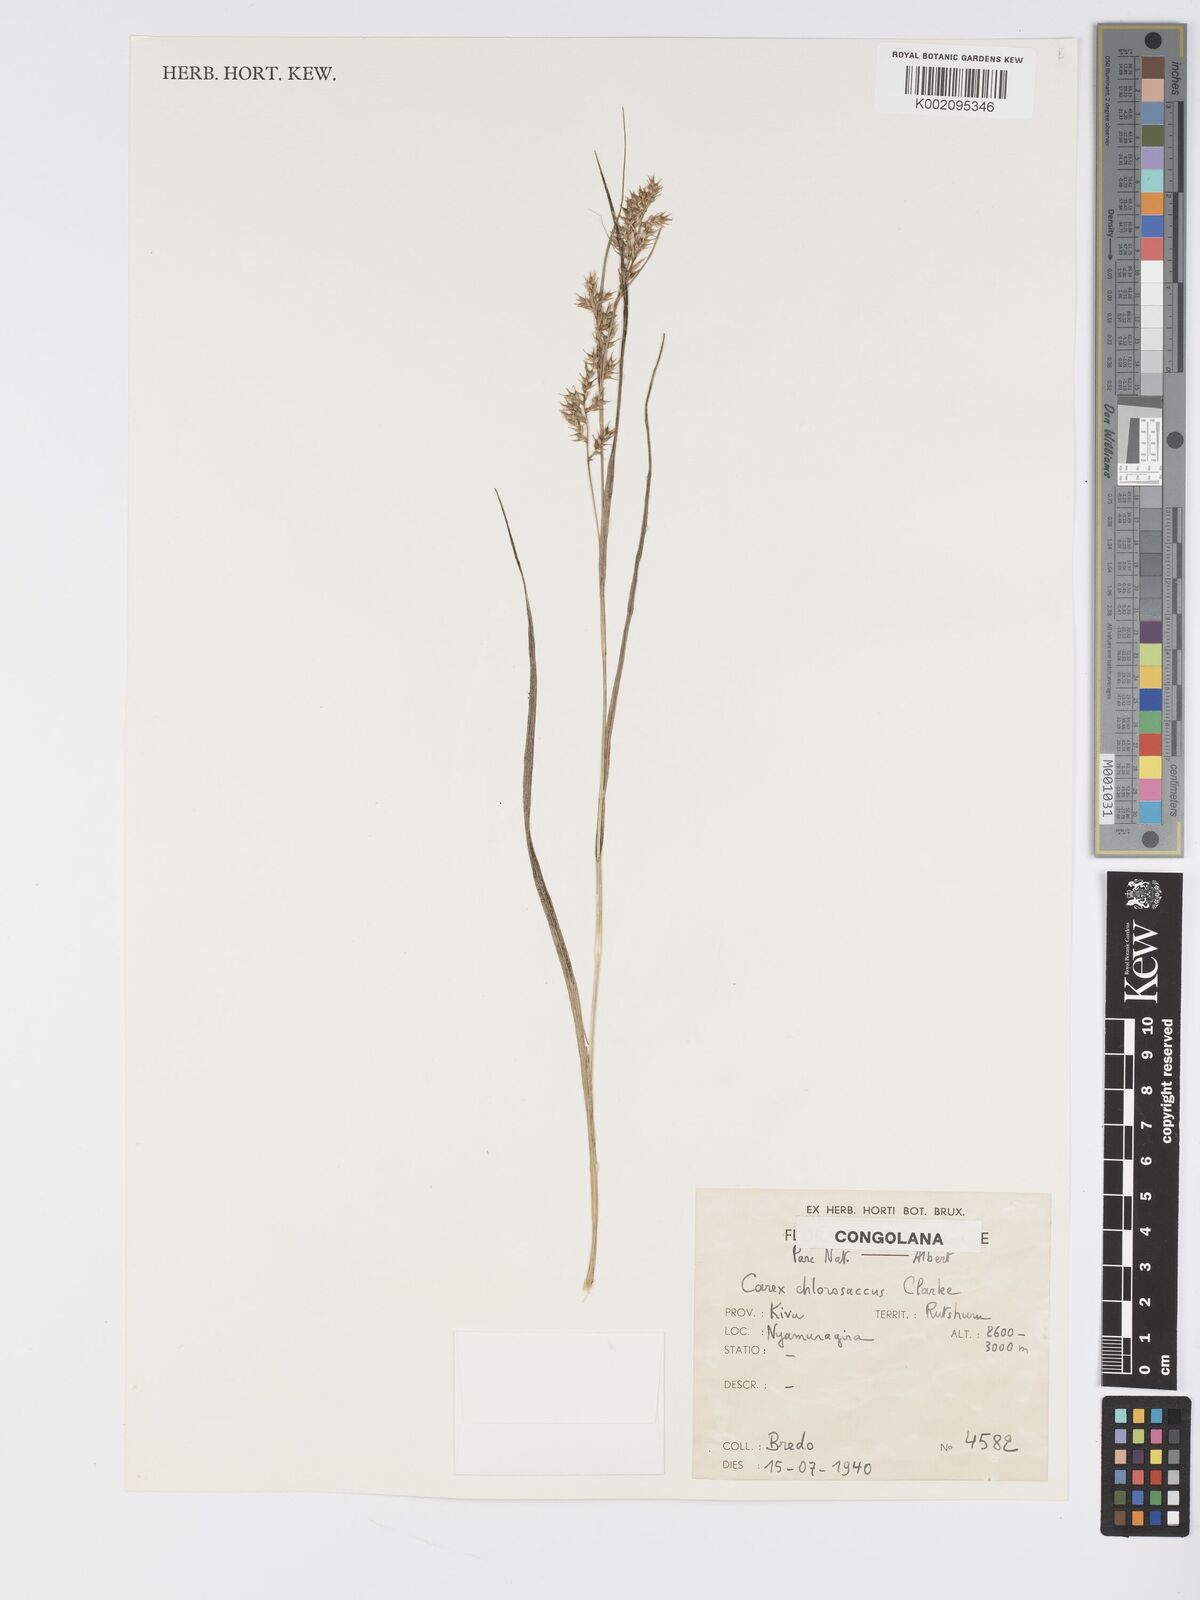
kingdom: Plantae
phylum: Tracheophyta
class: Liliopsida
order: Poales
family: Cyperaceae
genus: Carex
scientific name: Carex chlorosaccus
